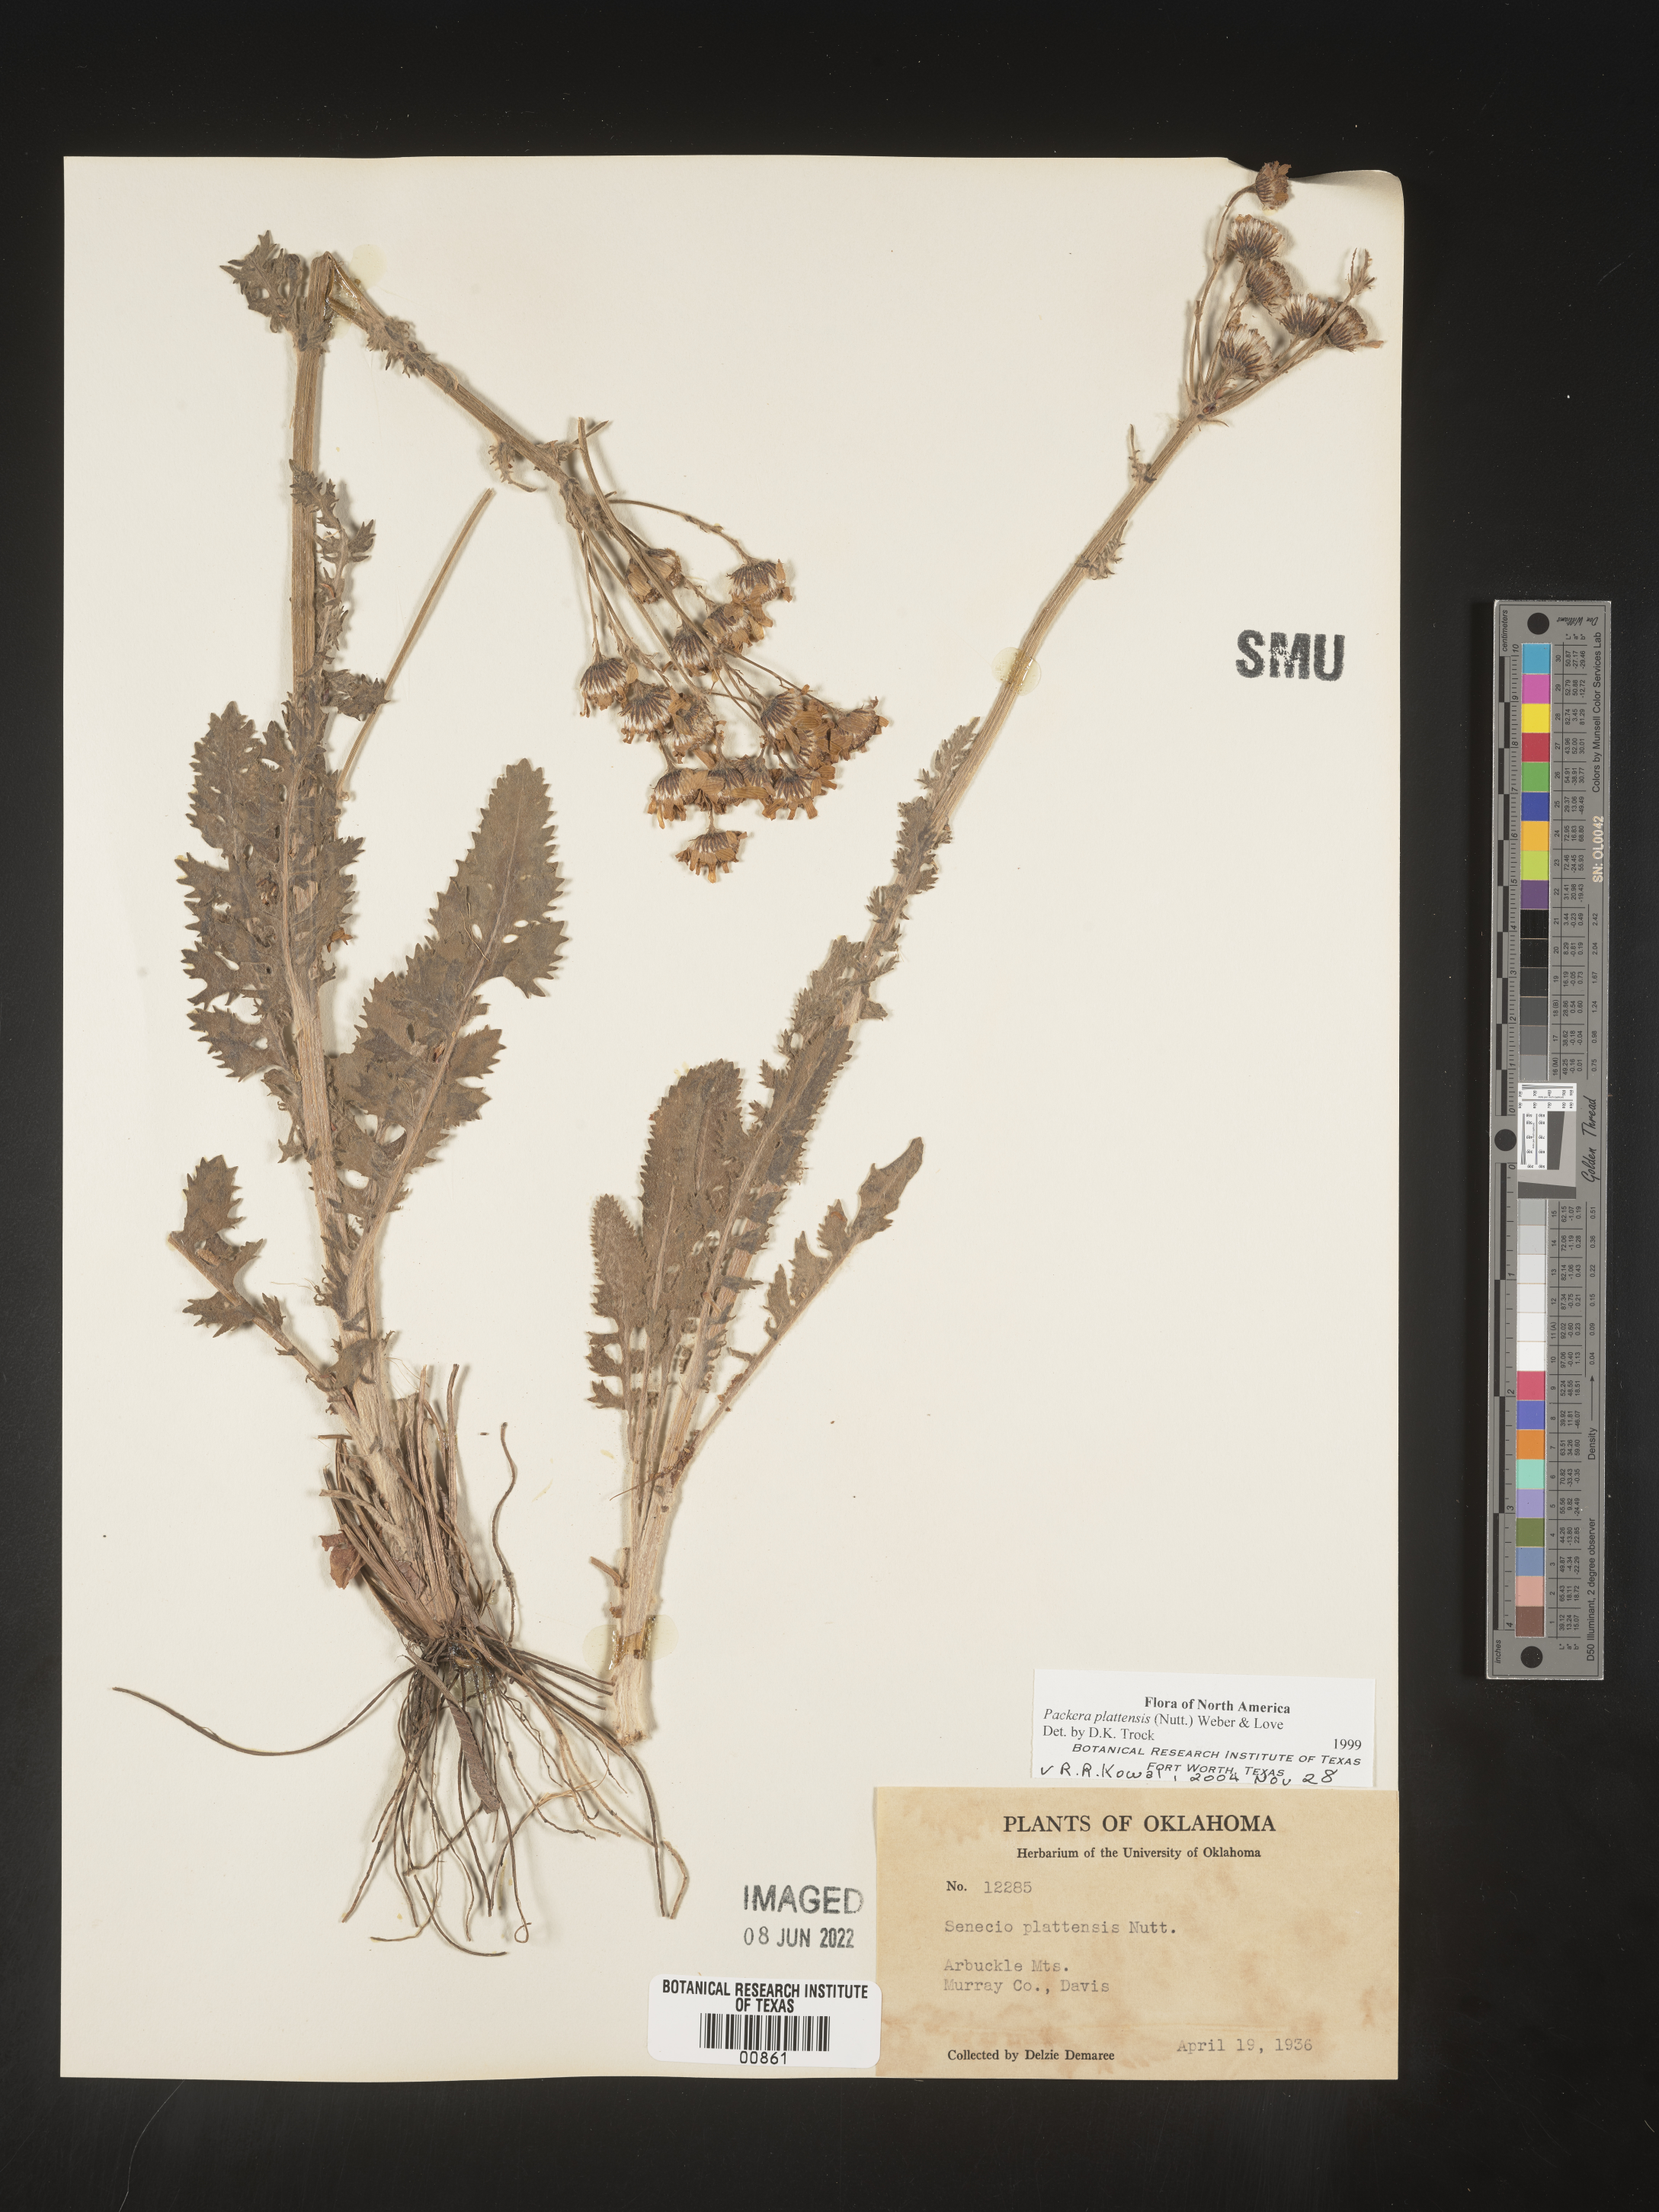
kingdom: Plantae
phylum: Tracheophyta
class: Magnoliopsida
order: Asterales
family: Asteraceae
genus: Packera
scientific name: Packera plattensis
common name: Prairie groundsel
